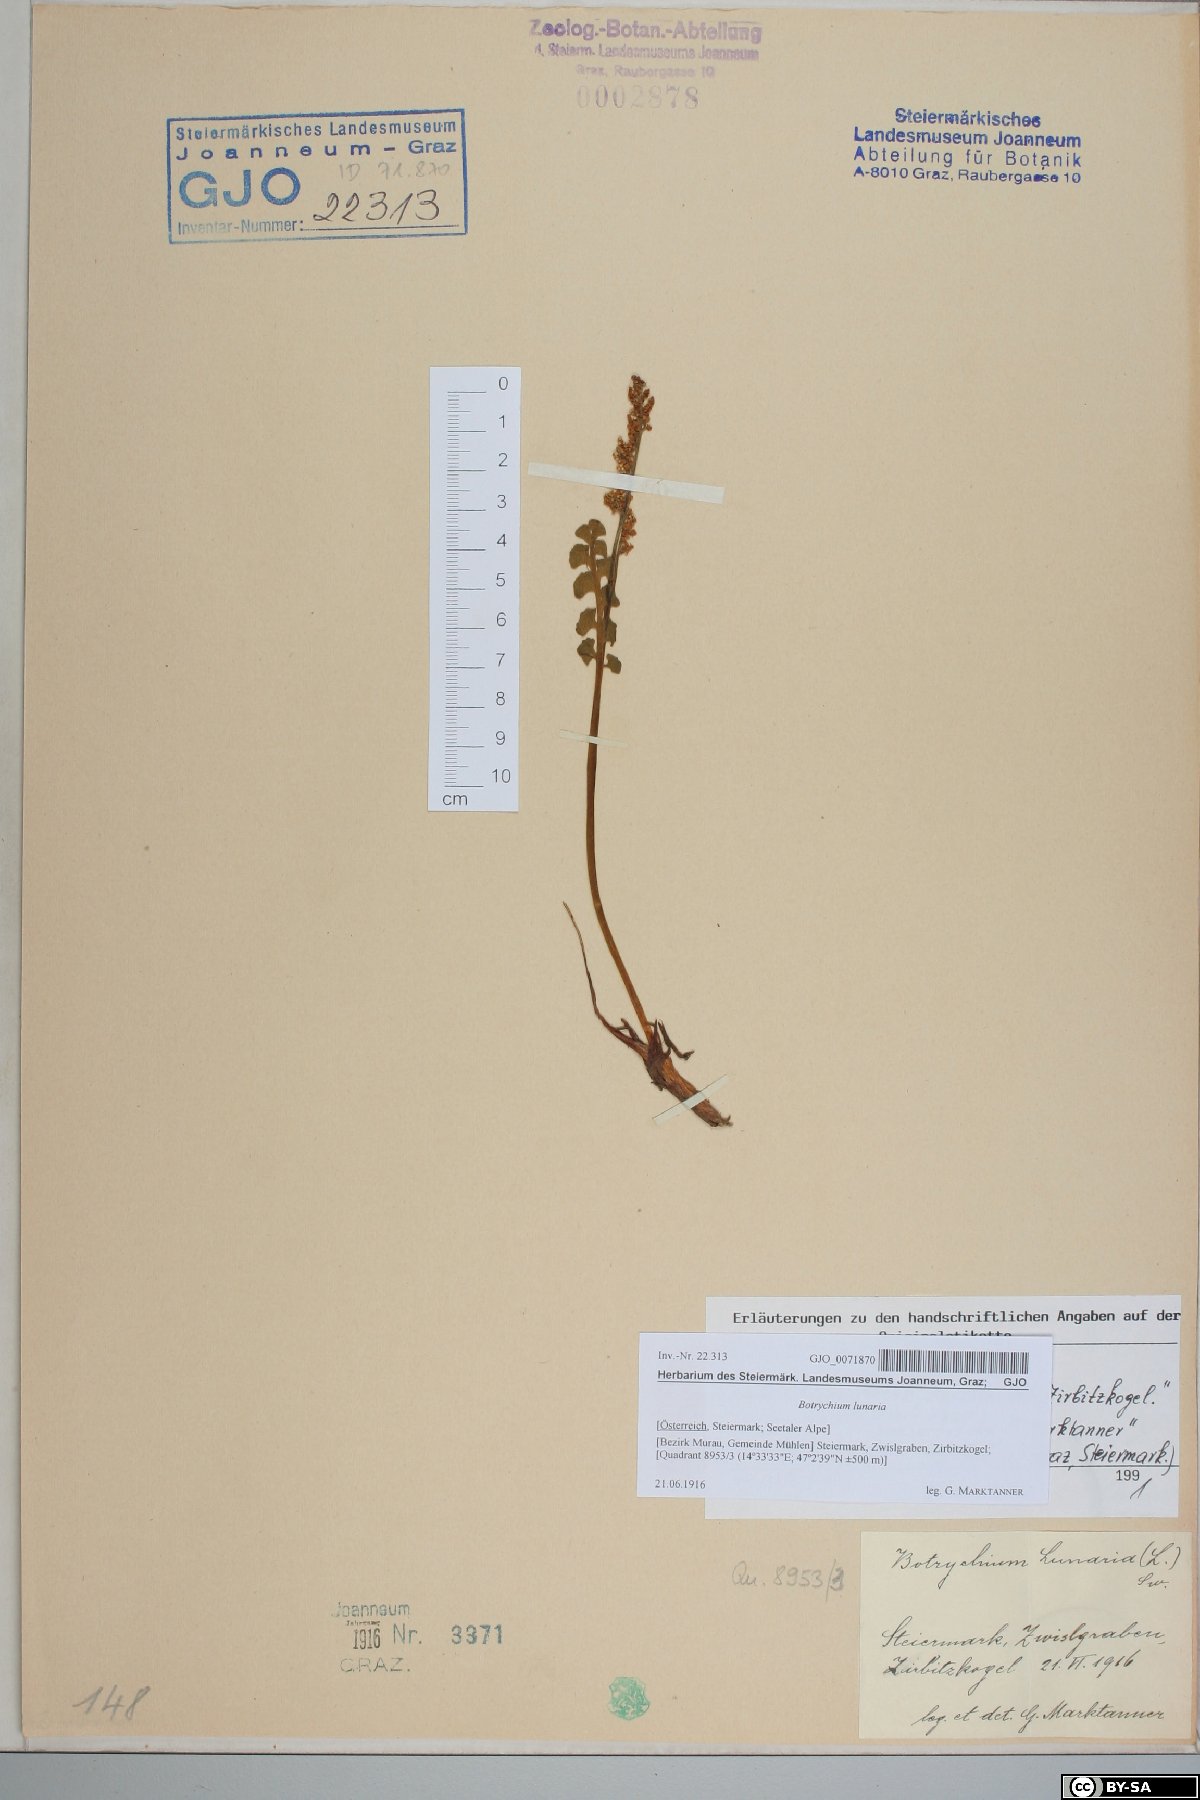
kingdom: Plantae
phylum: Tracheophyta
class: Polypodiopsida
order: Ophioglossales
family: Ophioglossaceae
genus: Botrychium
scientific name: Botrychium lunaria
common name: Moonwort
